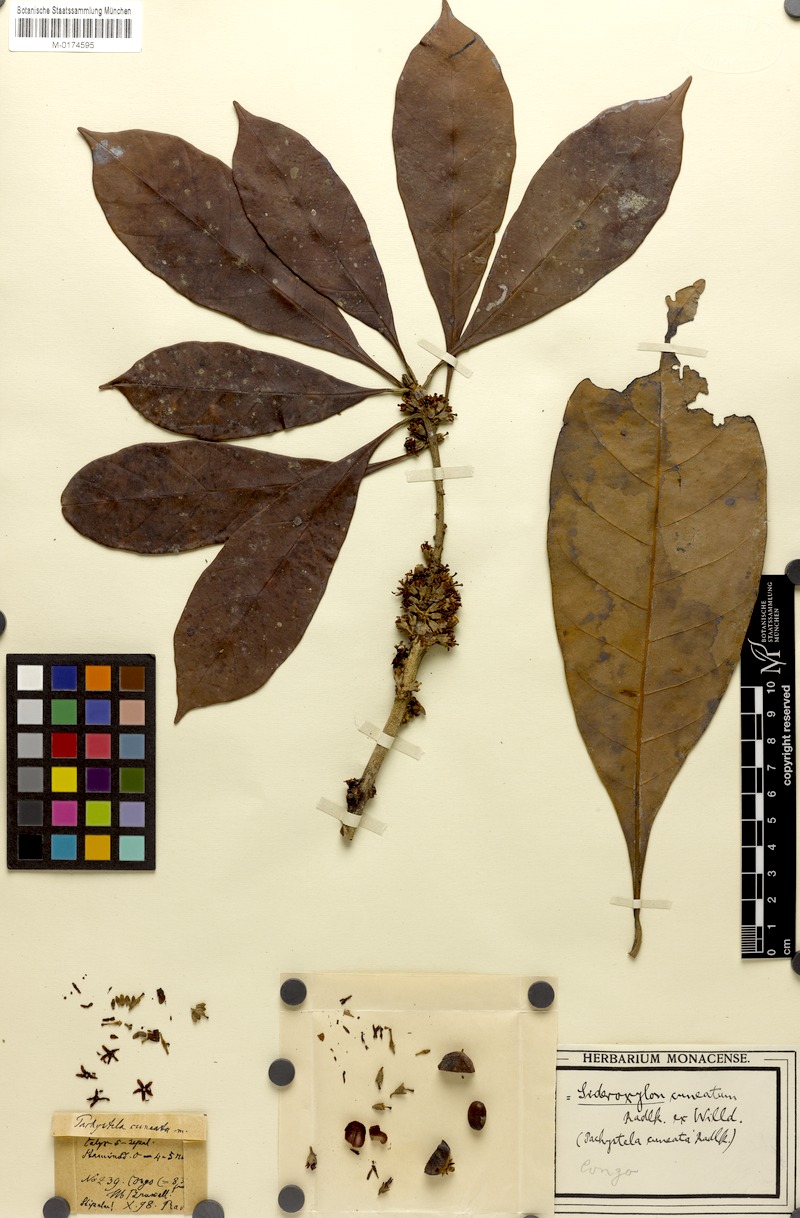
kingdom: Plantae
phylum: Tracheophyta
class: Magnoliopsida
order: Ericales
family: Sapotaceae
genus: Synsepalum
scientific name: Synsepalum brevipes
